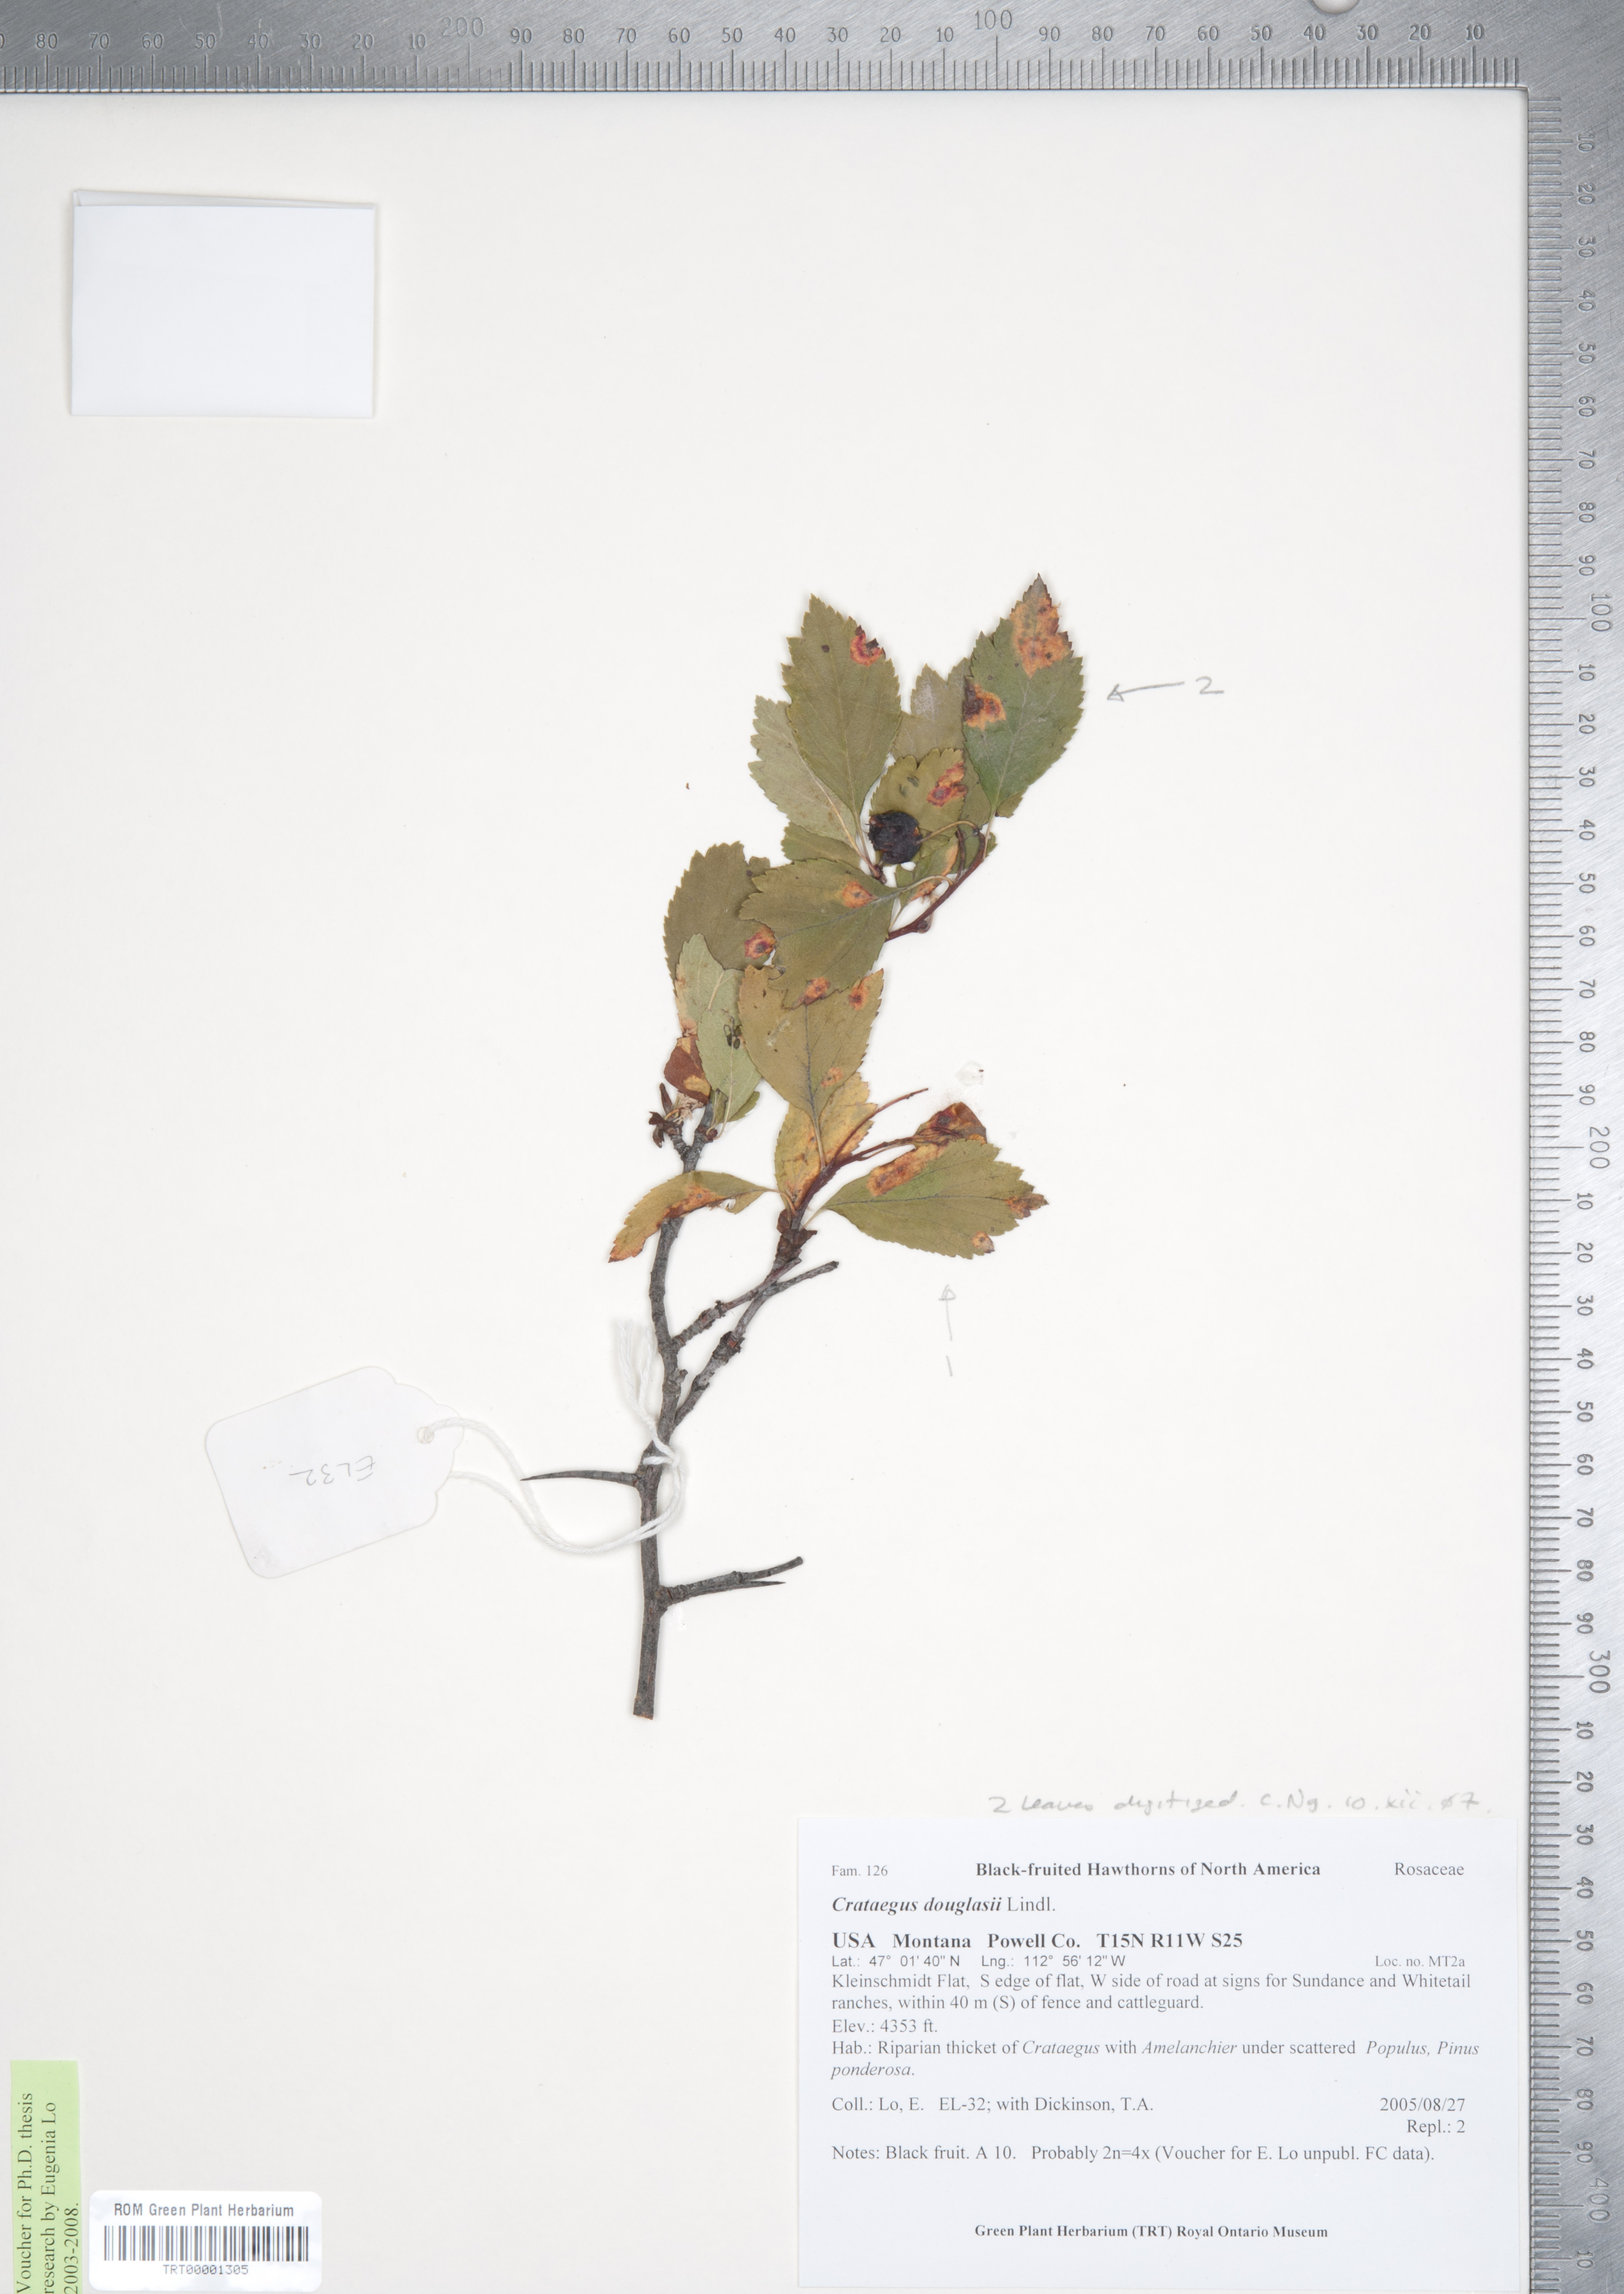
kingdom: Plantae
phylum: Tracheophyta
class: Magnoliopsida
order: Rosales
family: Rosaceae
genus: Crataegus
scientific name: Crataegus douglasii
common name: Black hawthorn
